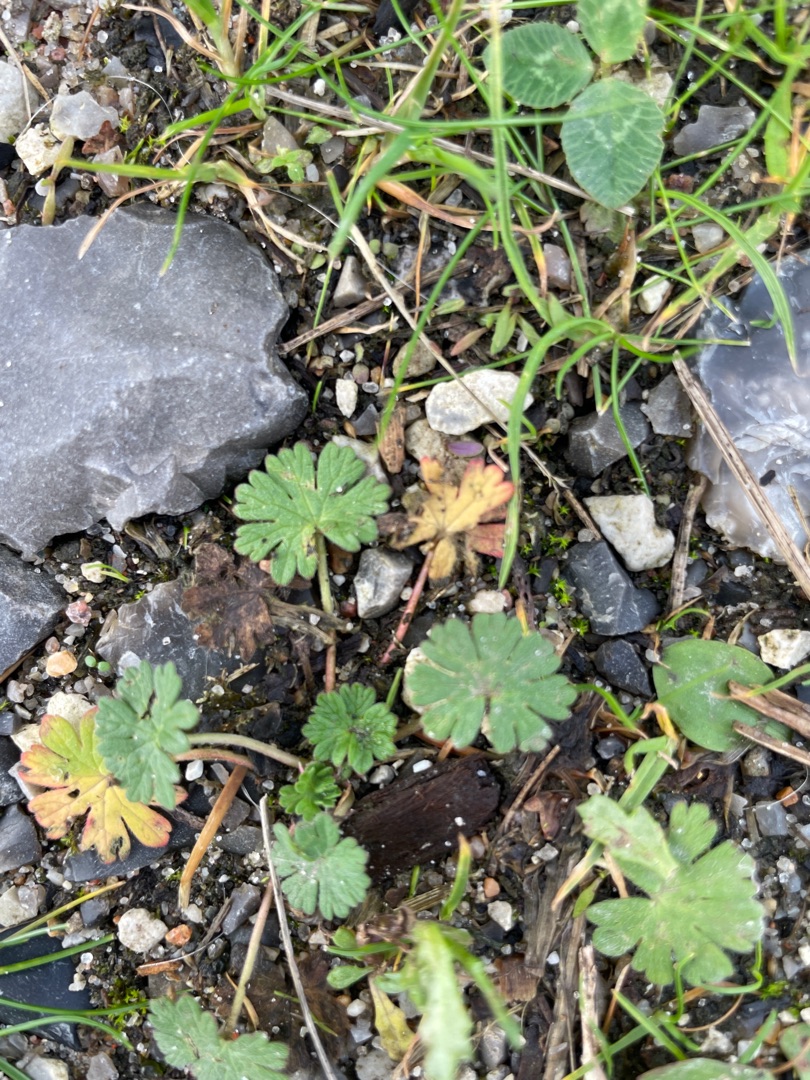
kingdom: Plantae
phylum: Tracheophyta
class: Magnoliopsida
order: Geraniales
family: Geraniaceae
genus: Geranium
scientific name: Geranium
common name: Storkenæbslægten
